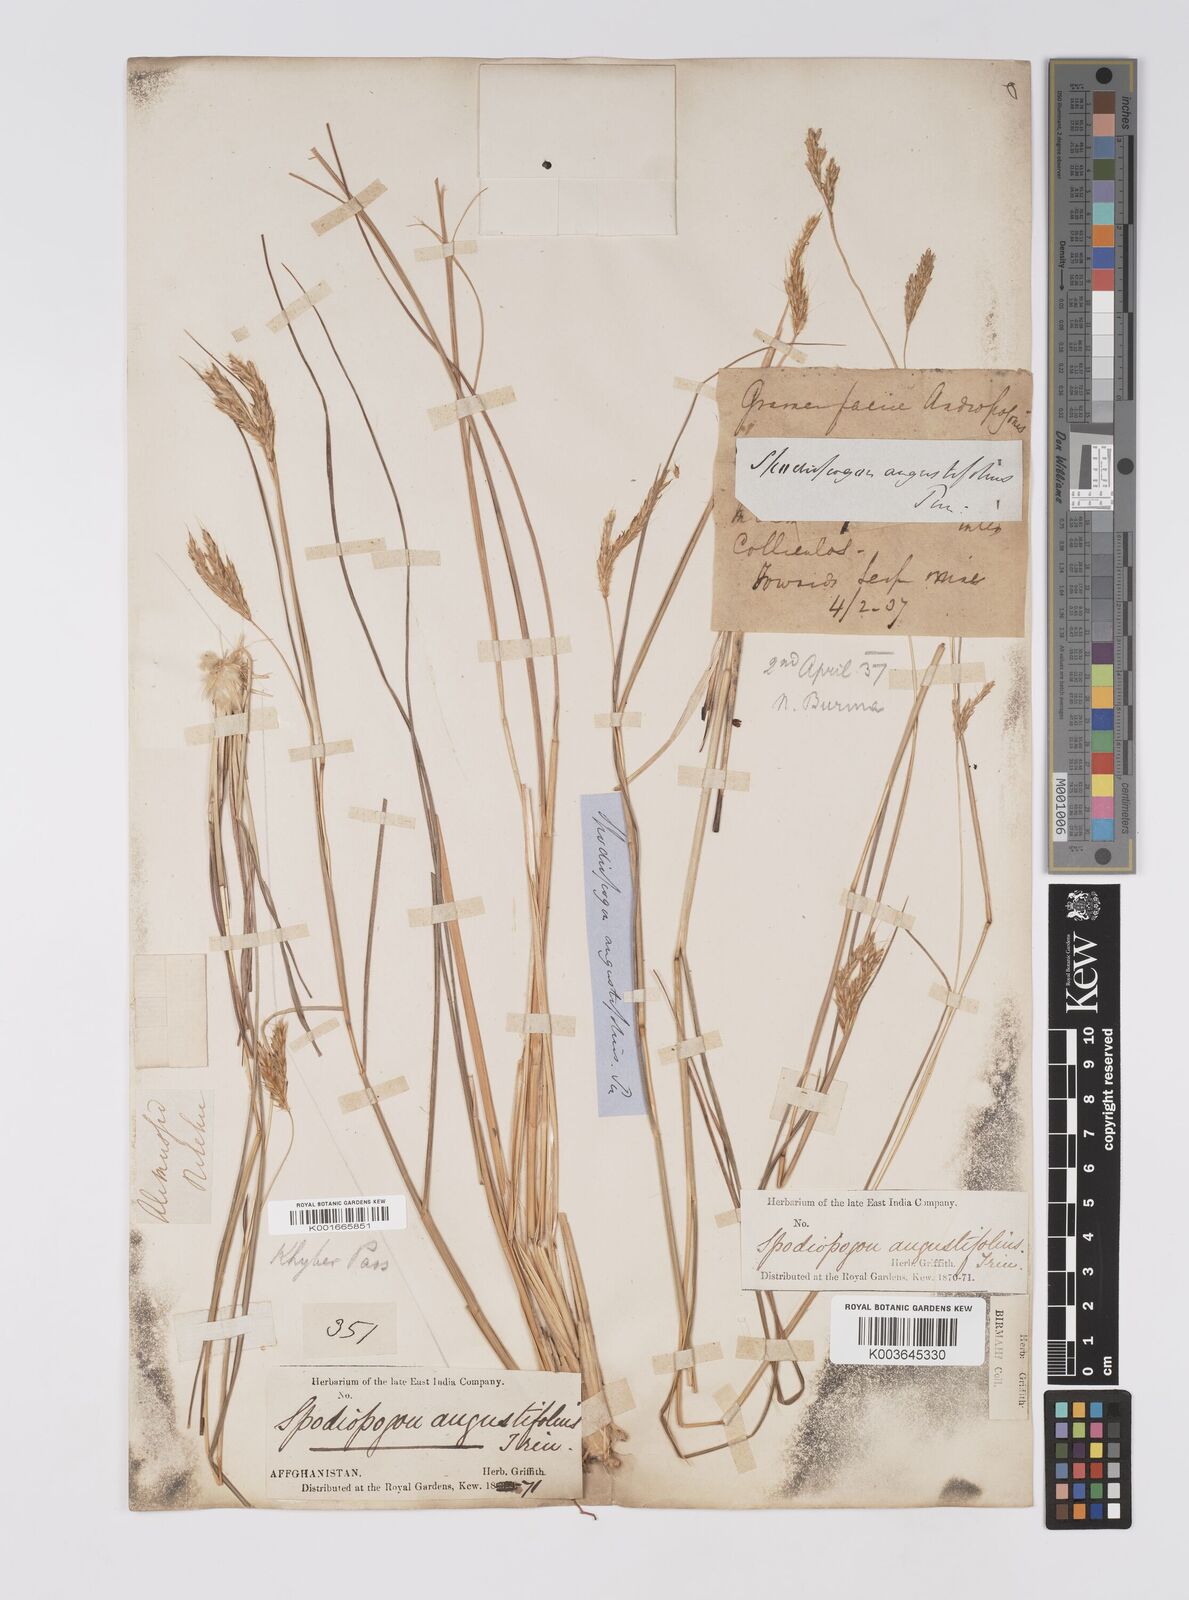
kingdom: Plantae
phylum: Tracheophyta
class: Liliopsida
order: Poales
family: Poaceae
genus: Eulaliopsis
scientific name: Eulaliopsis binata
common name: Baib grass
